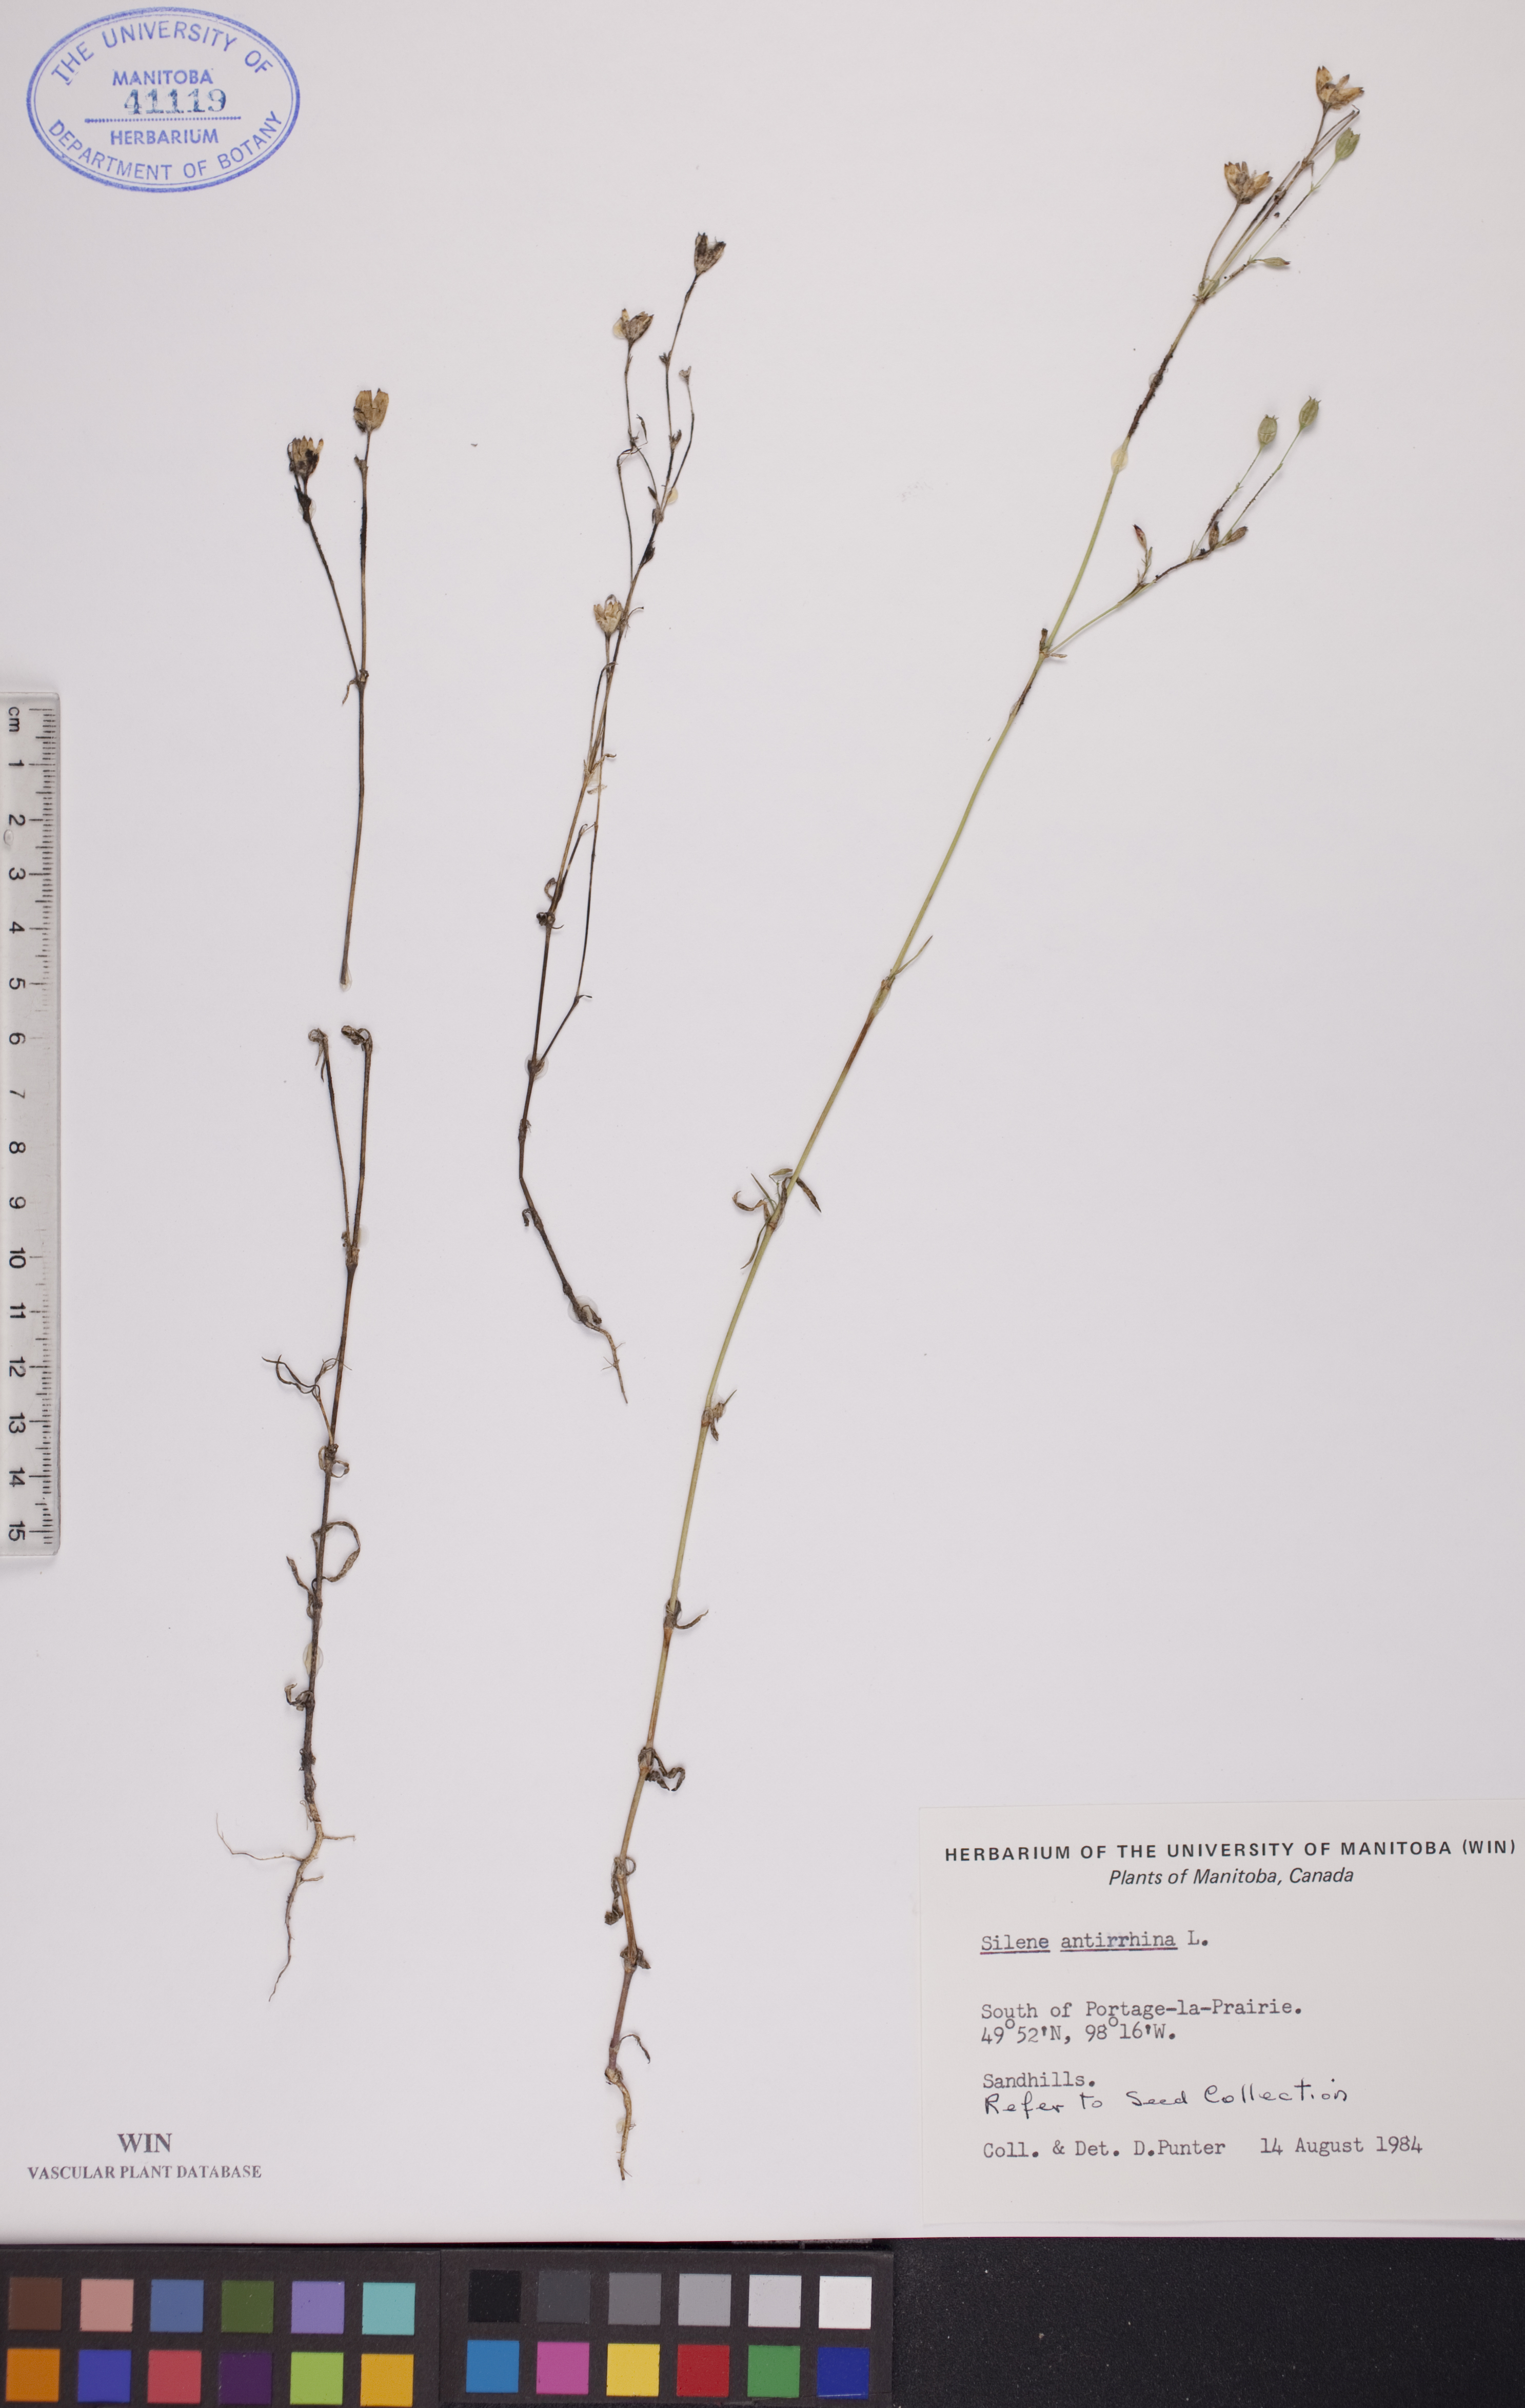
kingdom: Plantae
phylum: Tracheophyta
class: Magnoliopsida
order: Caryophyllales
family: Caryophyllaceae
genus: Silene
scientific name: Silene antirrhina
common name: Sleepy catchfly
